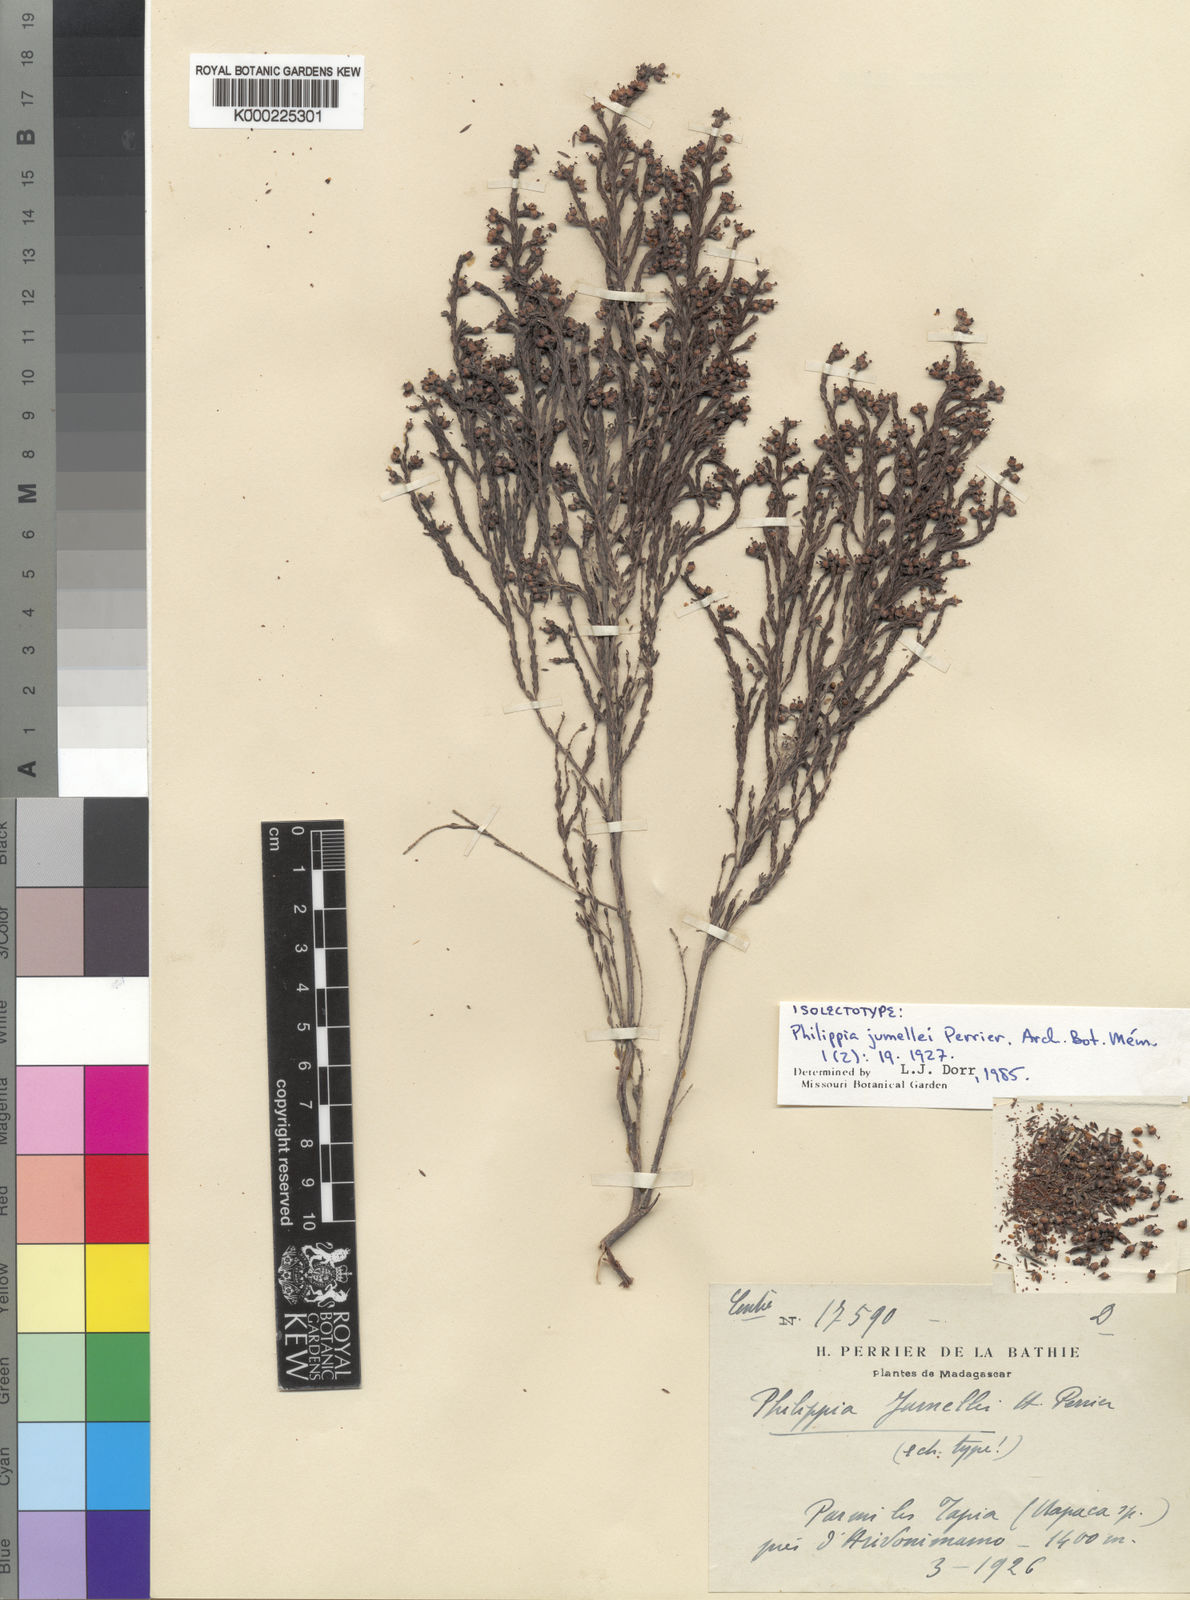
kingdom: Plantae
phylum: Tracheophyta
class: Magnoliopsida
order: Ericales
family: Ericaceae
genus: Erica
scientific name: Erica jumellei
